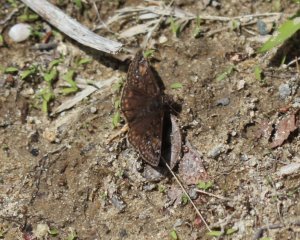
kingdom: Animalia
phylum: Arthropoda
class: Insecta
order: Lepidoptera
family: Hesperiidae
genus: Gesta
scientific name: Gesta
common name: Juvenal's Duskywing
